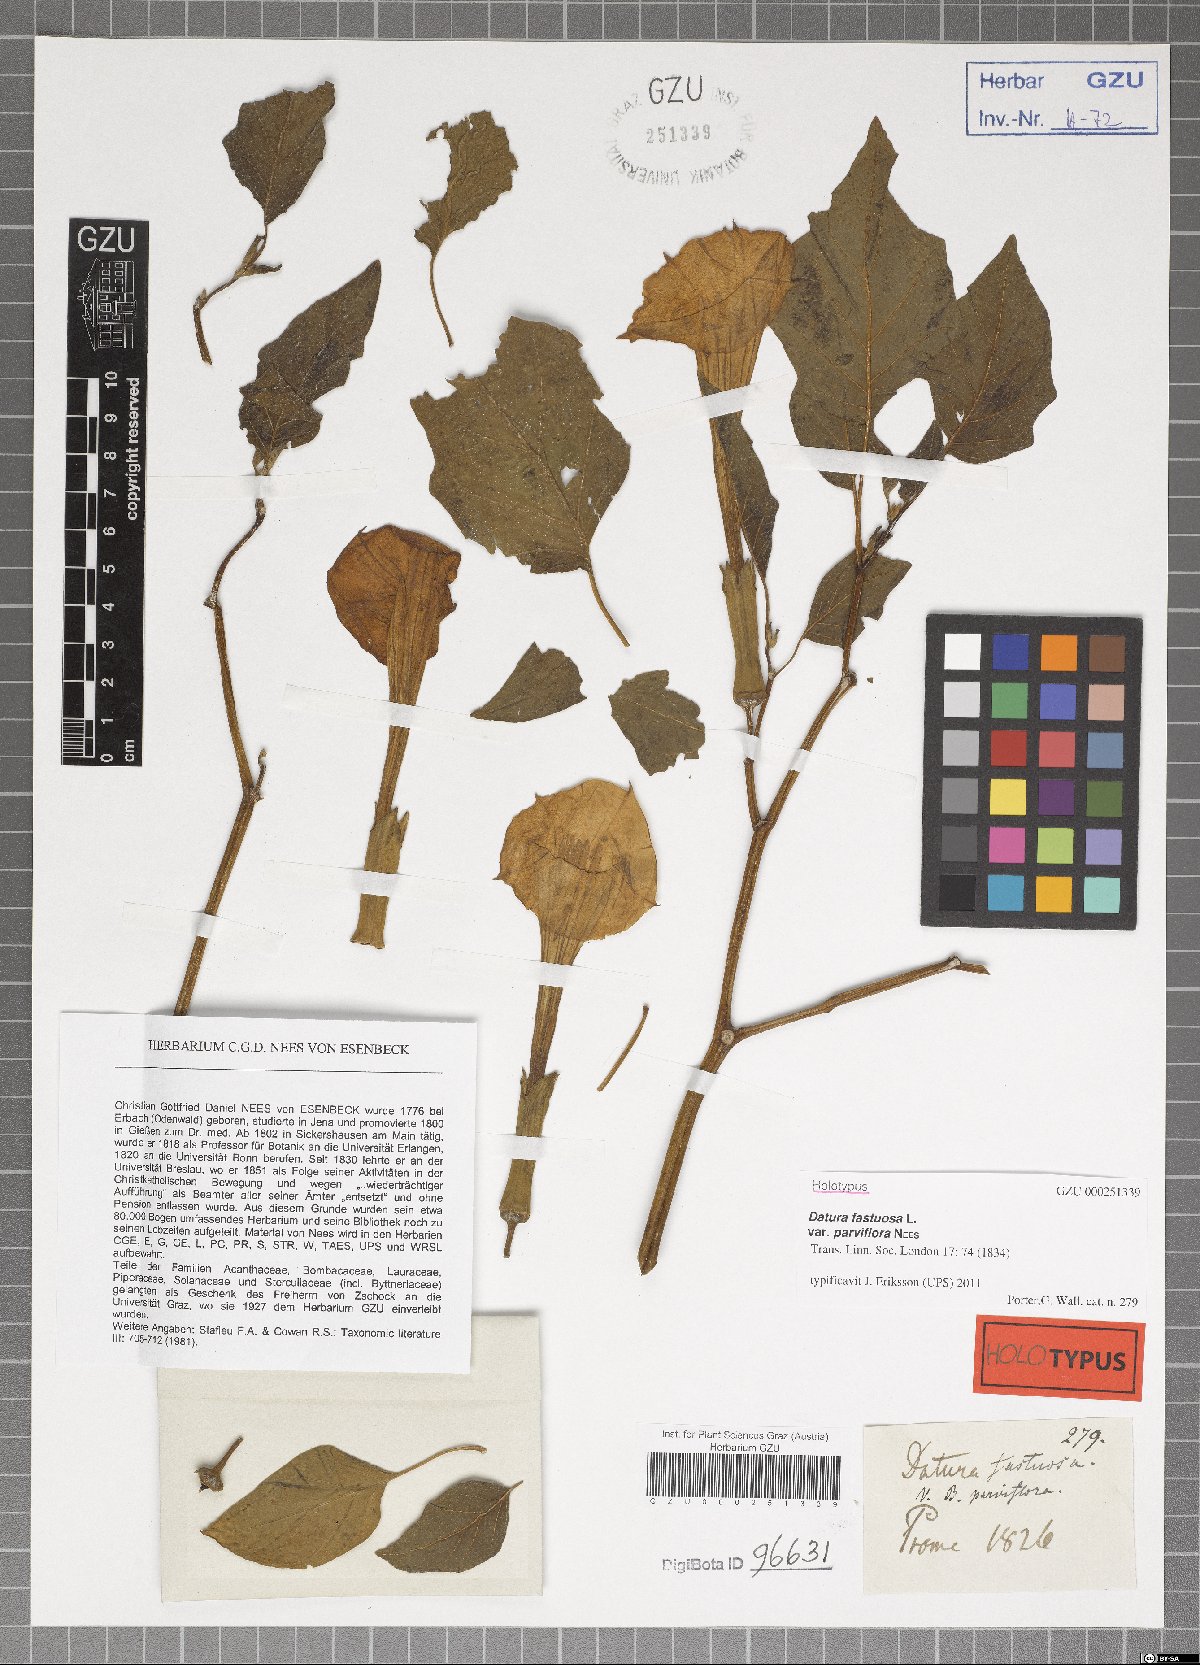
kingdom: Plantae
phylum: Tracheophyta
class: Magnoliopsida
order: Solanales
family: Solanaceae
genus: Datura
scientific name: Datura metel
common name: Jimsonweed
